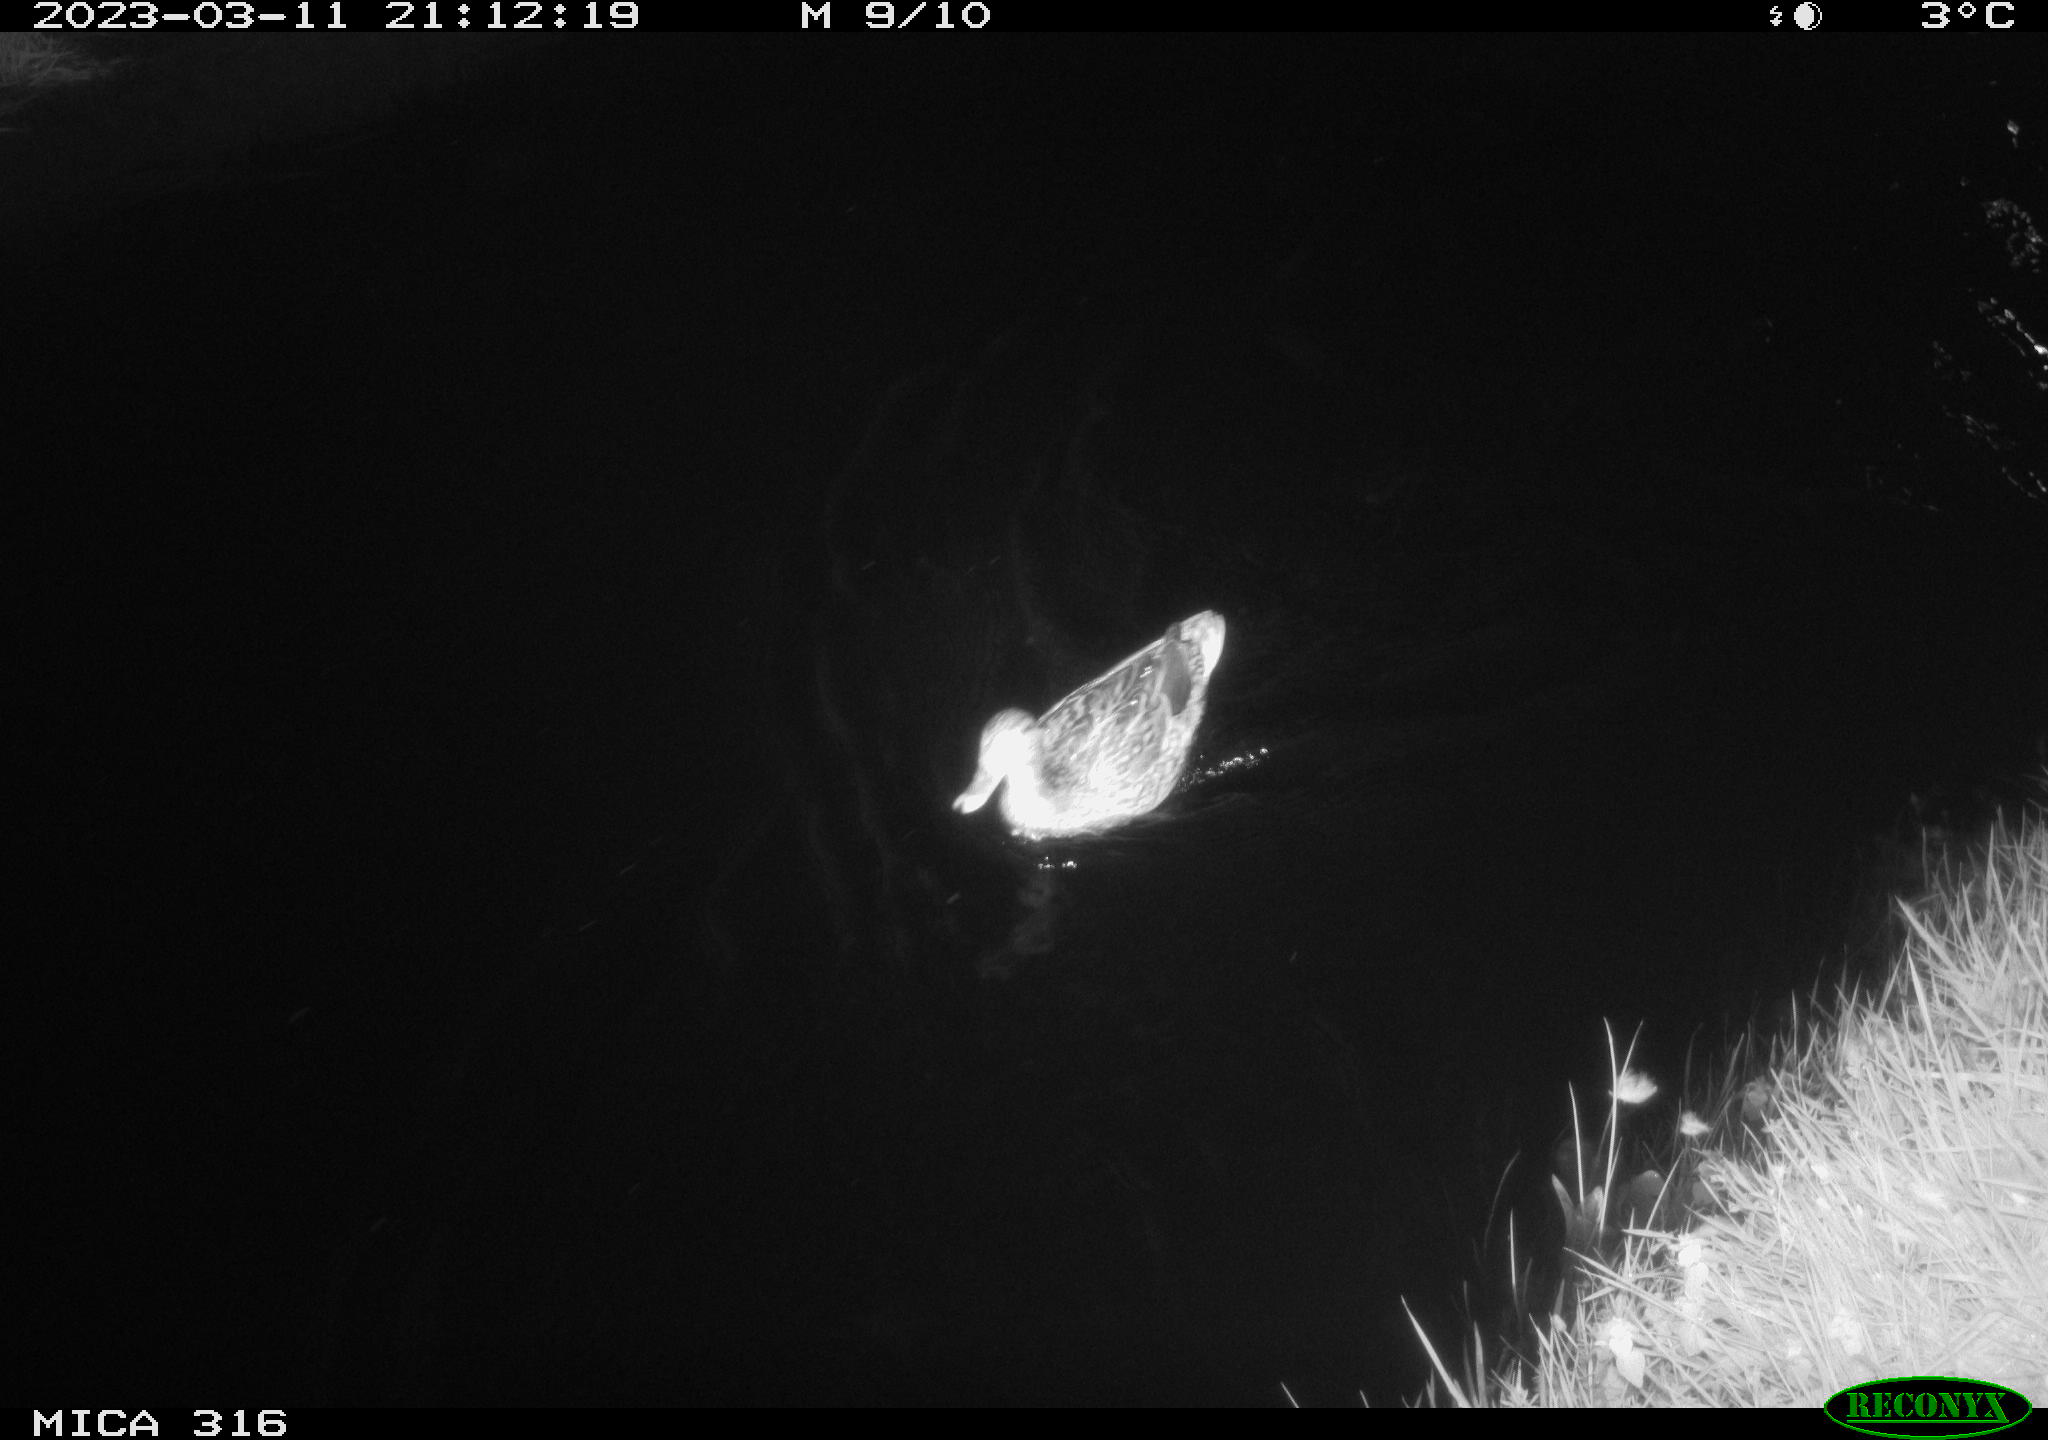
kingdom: Animalia
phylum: Chordata
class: Aves
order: Anseriformes
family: Anatidae
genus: Anas
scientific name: Anas
